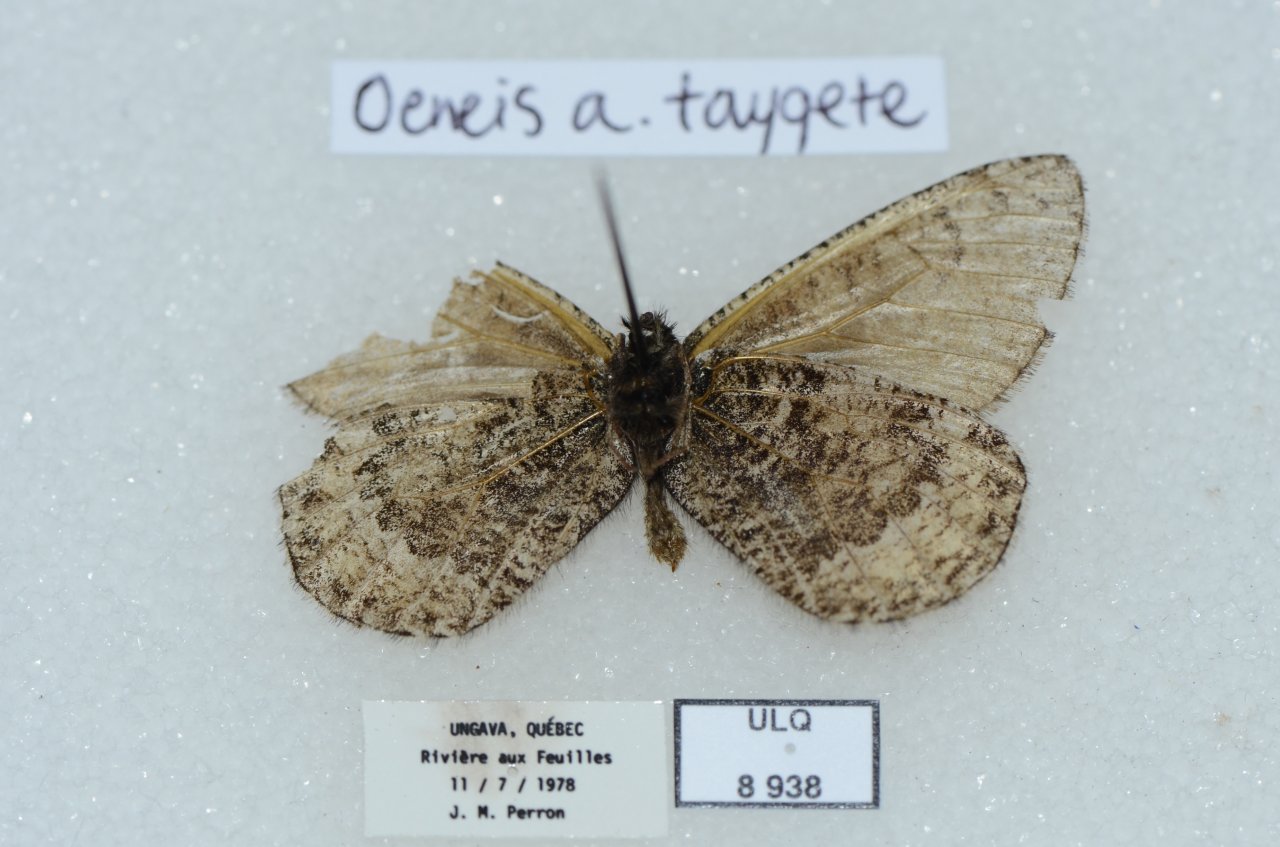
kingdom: Animalia
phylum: Arthropoda
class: Insecta
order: Lepidoptera
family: Nymphalidae
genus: Oeneis
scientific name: Oeneis bore
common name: White-veined Arctic
